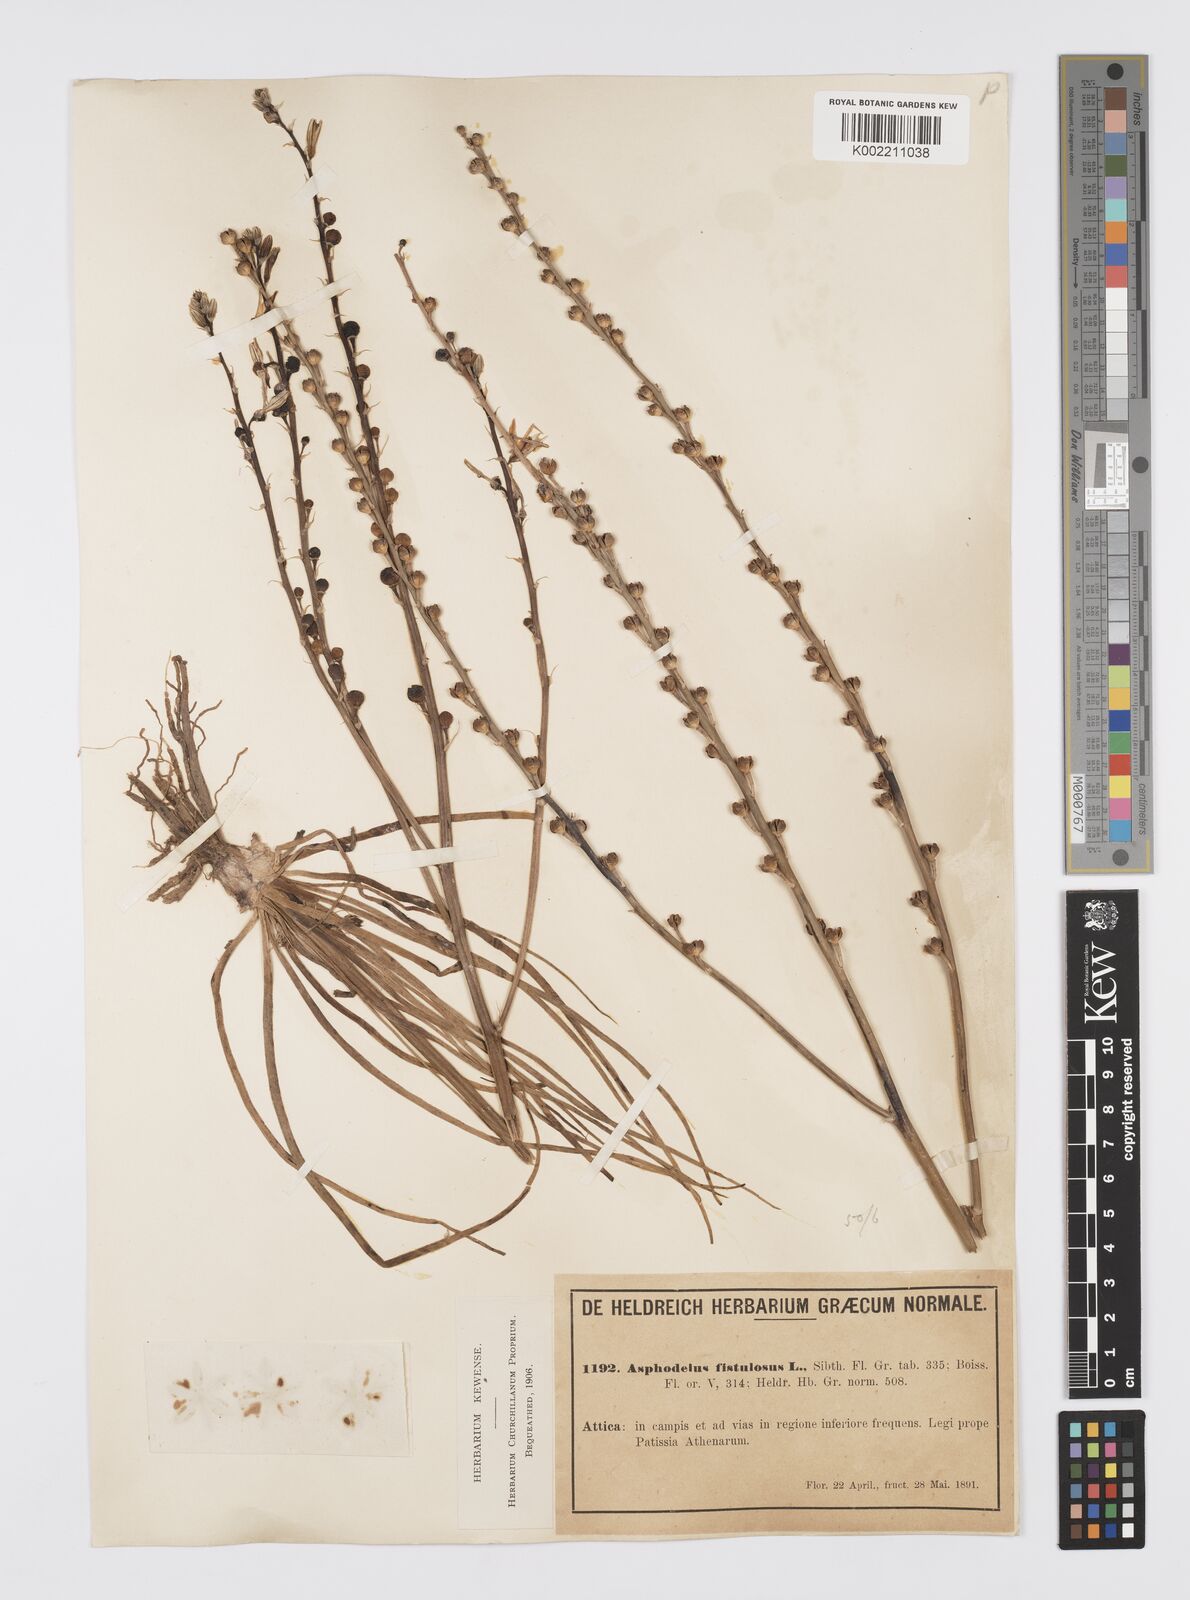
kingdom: Plantae
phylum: Tracheophyta
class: Liliopsida
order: Asparagales
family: Asphodelaceae
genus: Asphodelus
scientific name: Asphodelus fistulosus
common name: Onionweed
